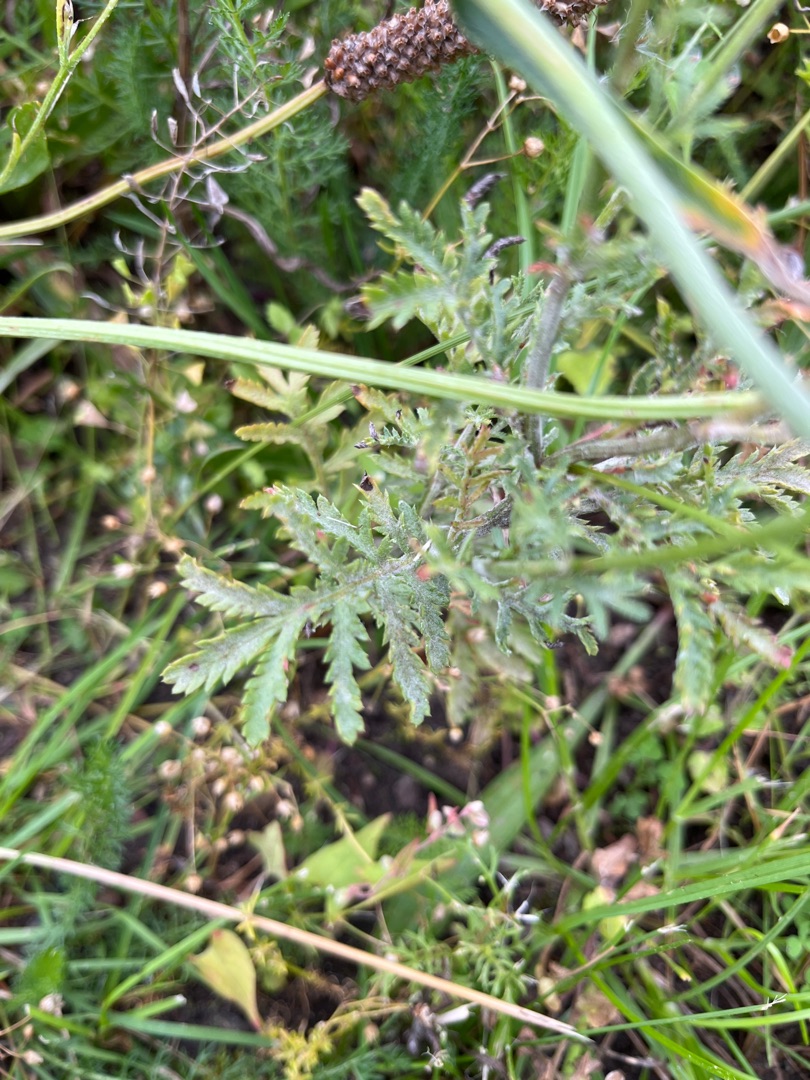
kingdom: Plantae
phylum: Tracheophyta
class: Magnoliopsida
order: Asterales
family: Asteraceae
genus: Cota
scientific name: Cota tinctoria
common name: Farve-gåseurt
